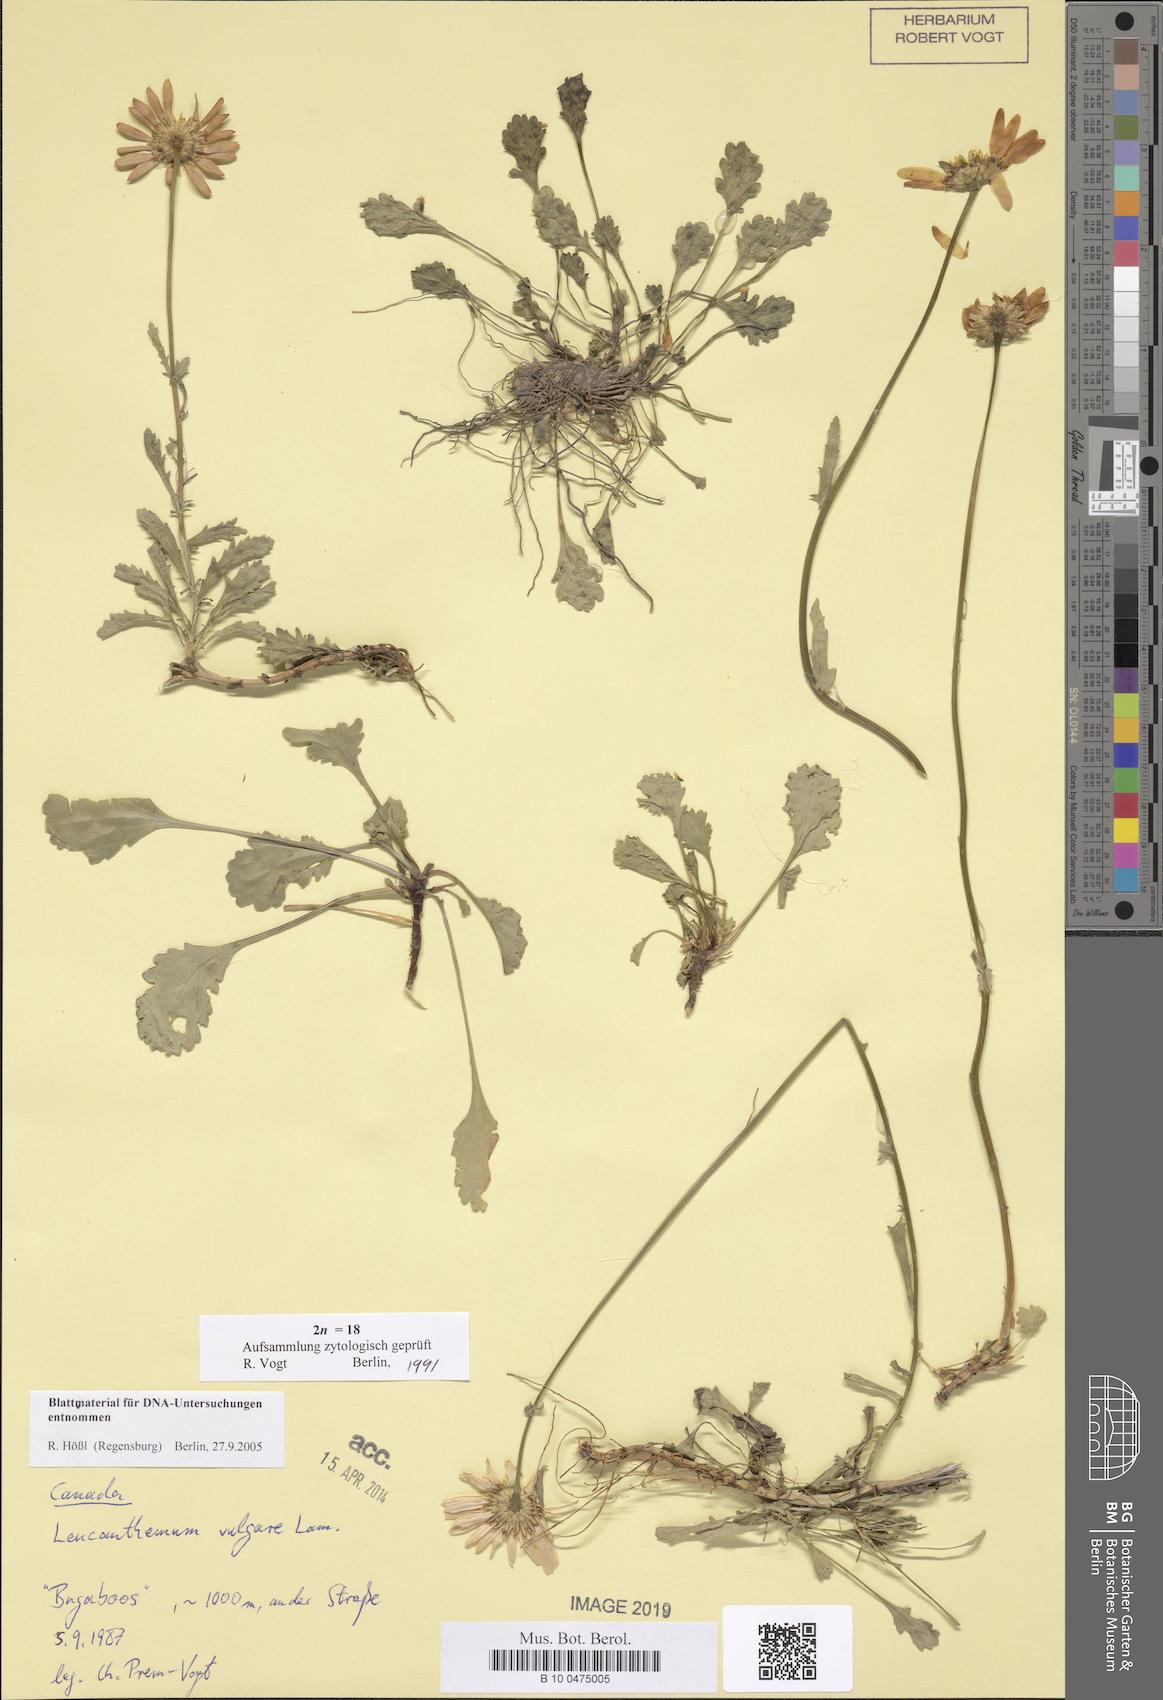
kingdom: Plantae
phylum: Tracheophyta
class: Magnoliopsida
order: Asterales
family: Asteraceae
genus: Leucanthemum
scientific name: Leucanthemum vulgare
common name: Oxeye daisy
